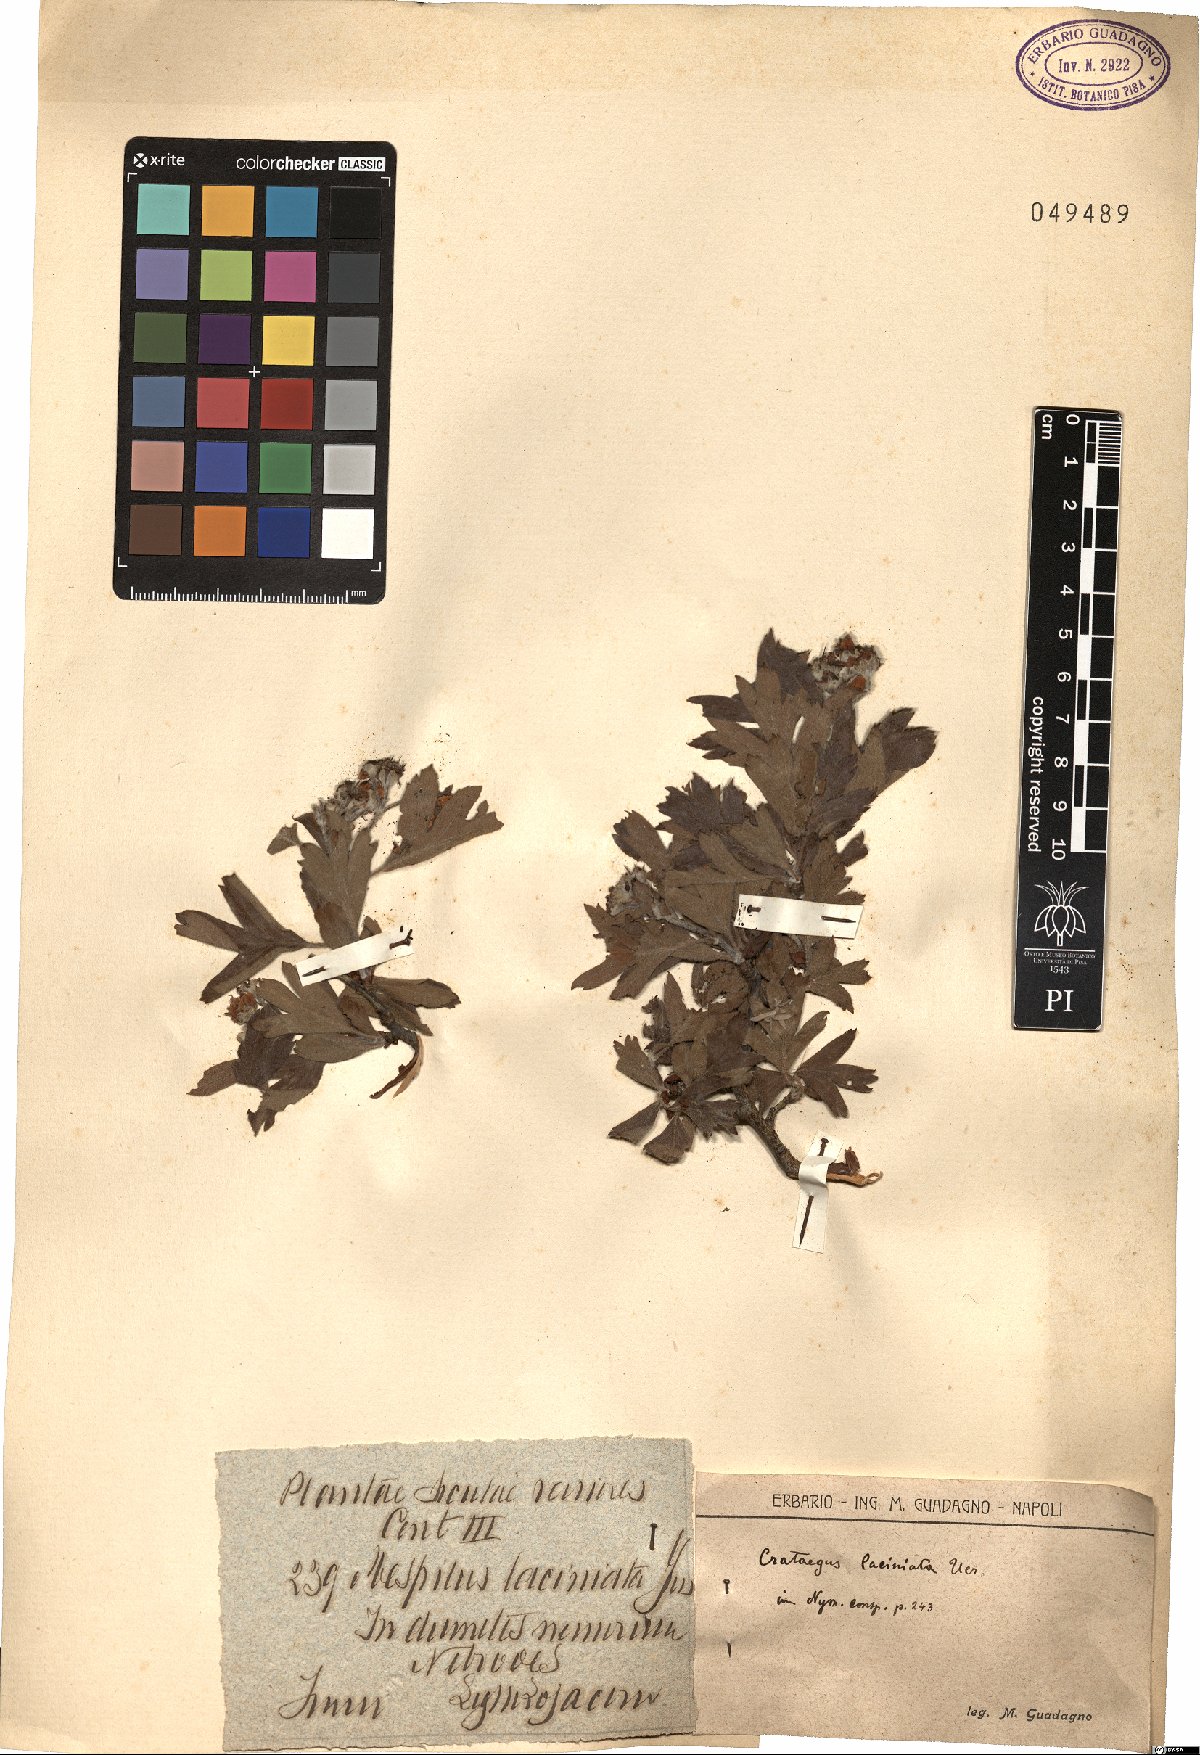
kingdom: Plantae
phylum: Tracheophyta
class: Magnoliopsida
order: Rosales
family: Rosaceae
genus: Crataegus
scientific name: Crataegus laciniata
